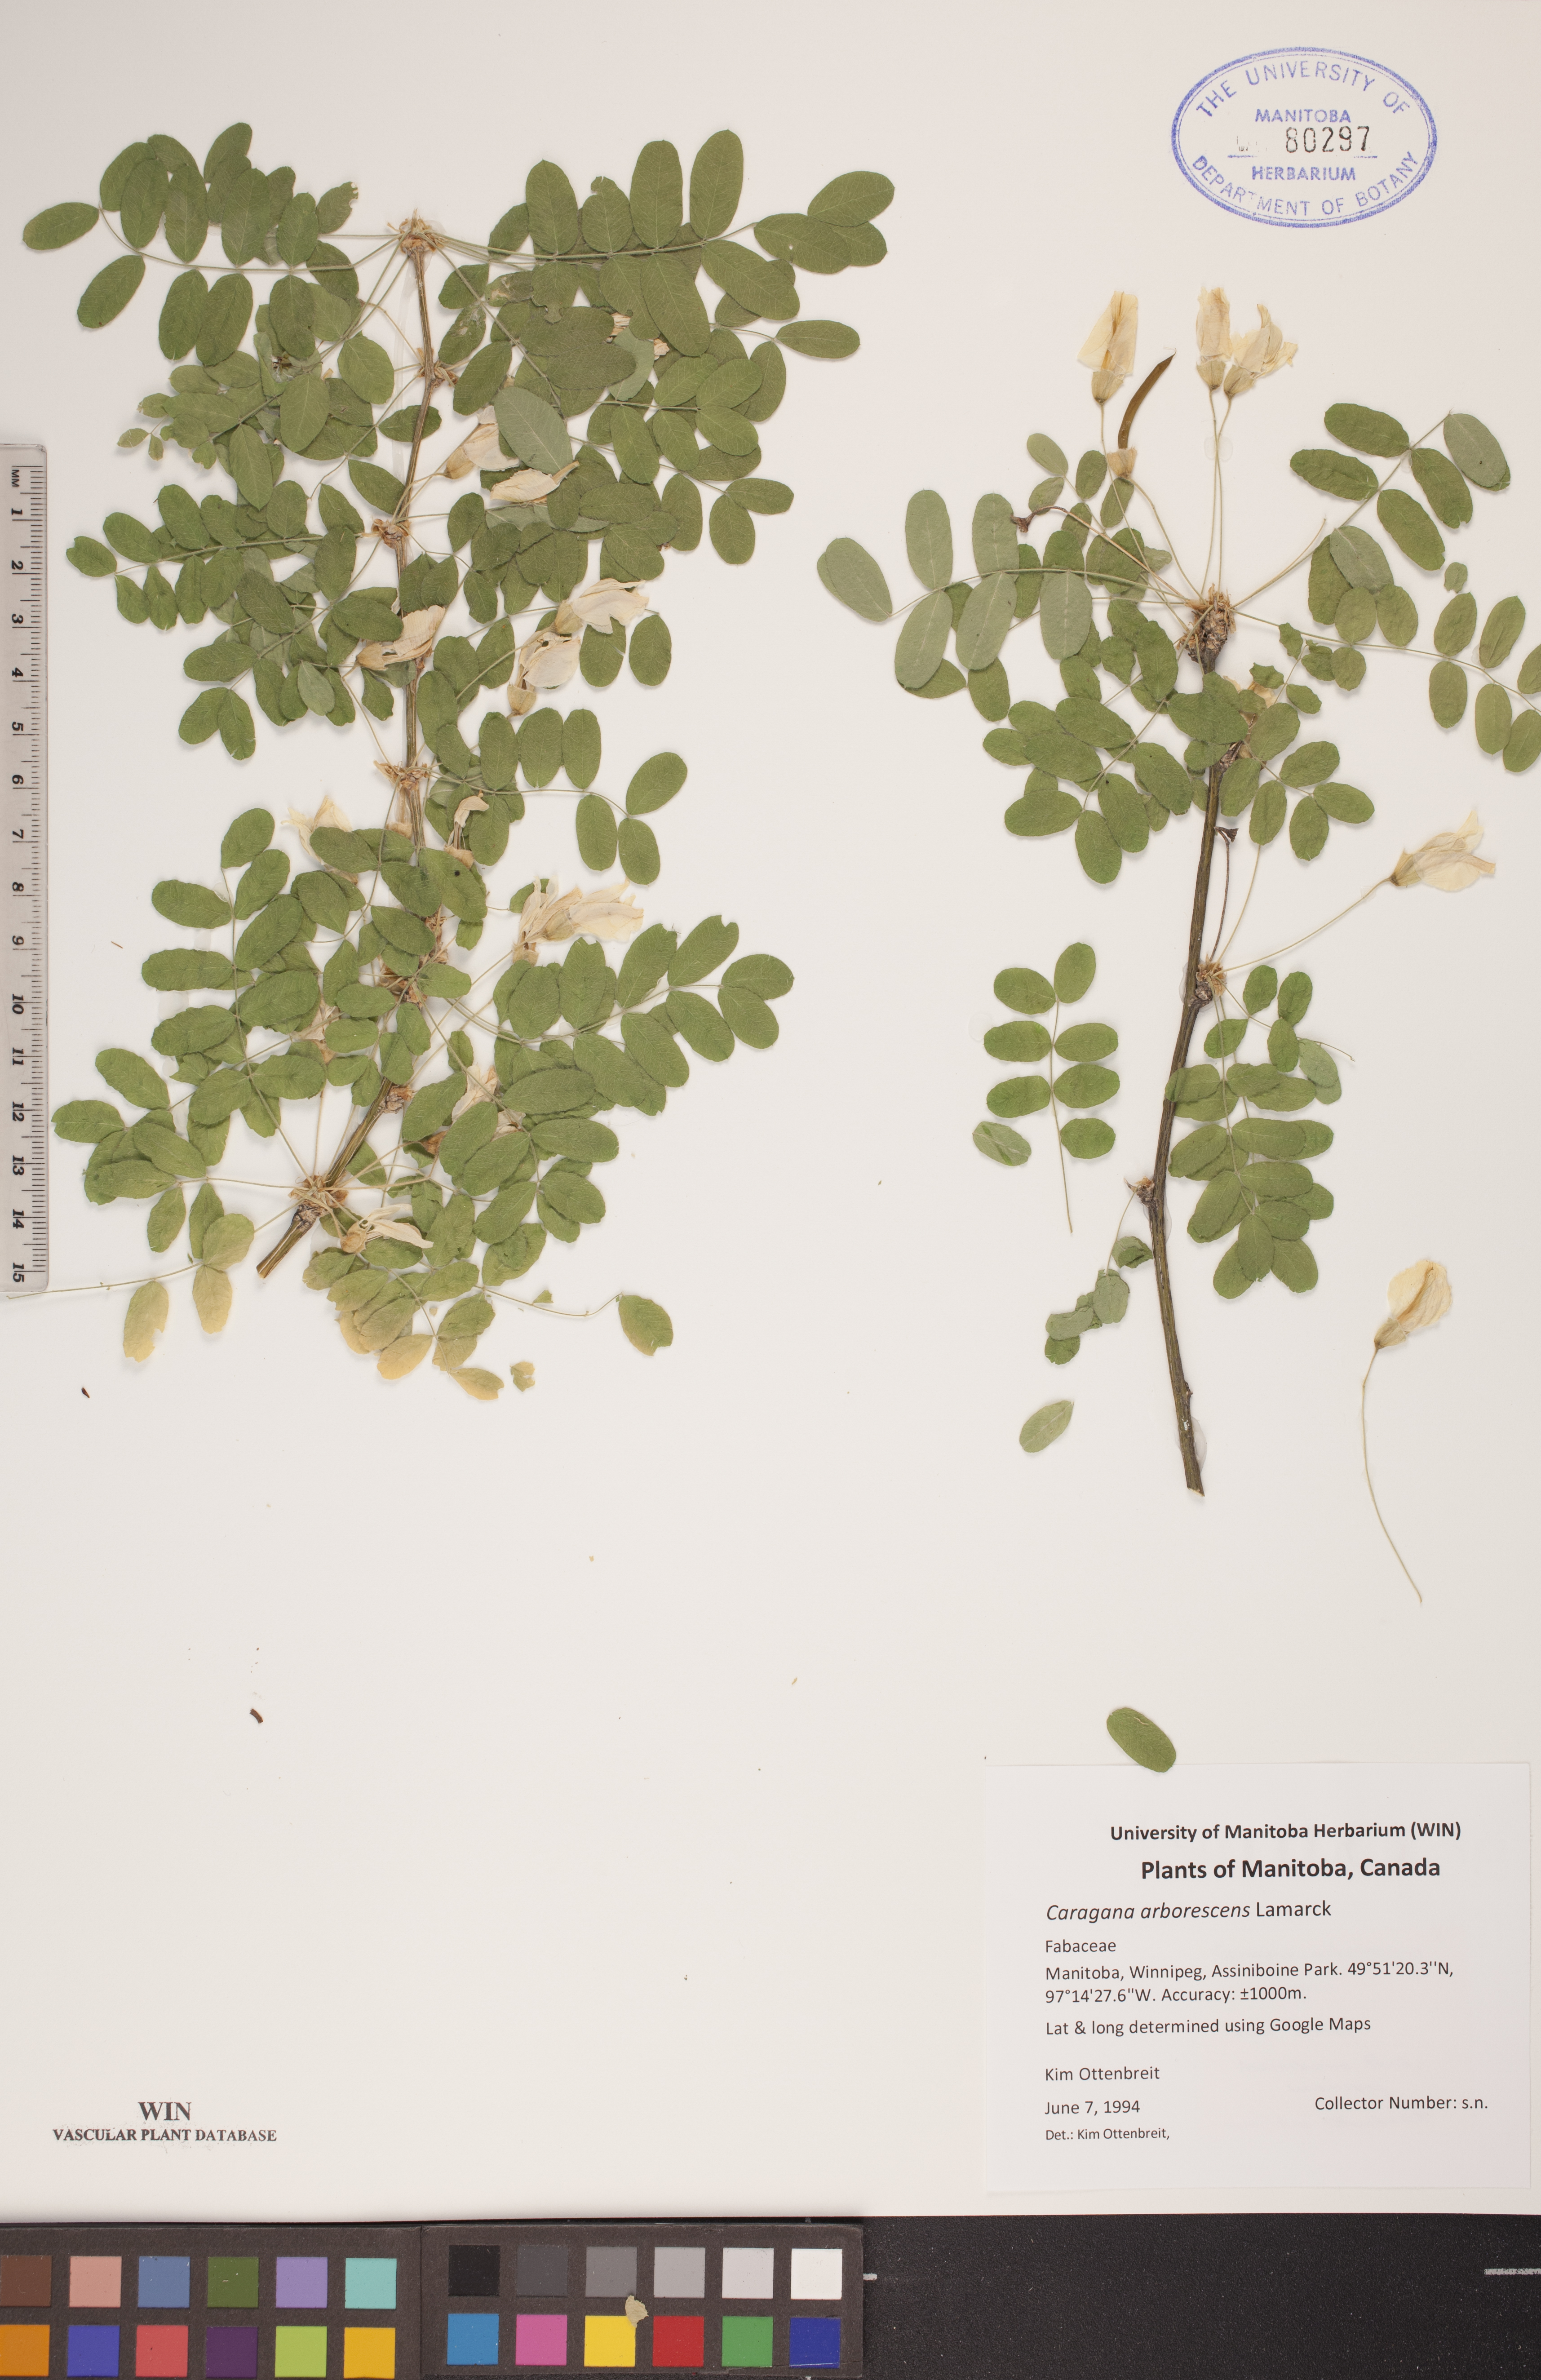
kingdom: Plantae
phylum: Tracheophyta
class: Magnoliopsida
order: Fabales
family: Fabaceae
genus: Caragana
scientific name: Caragana arborescens
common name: Siberian peashrub
